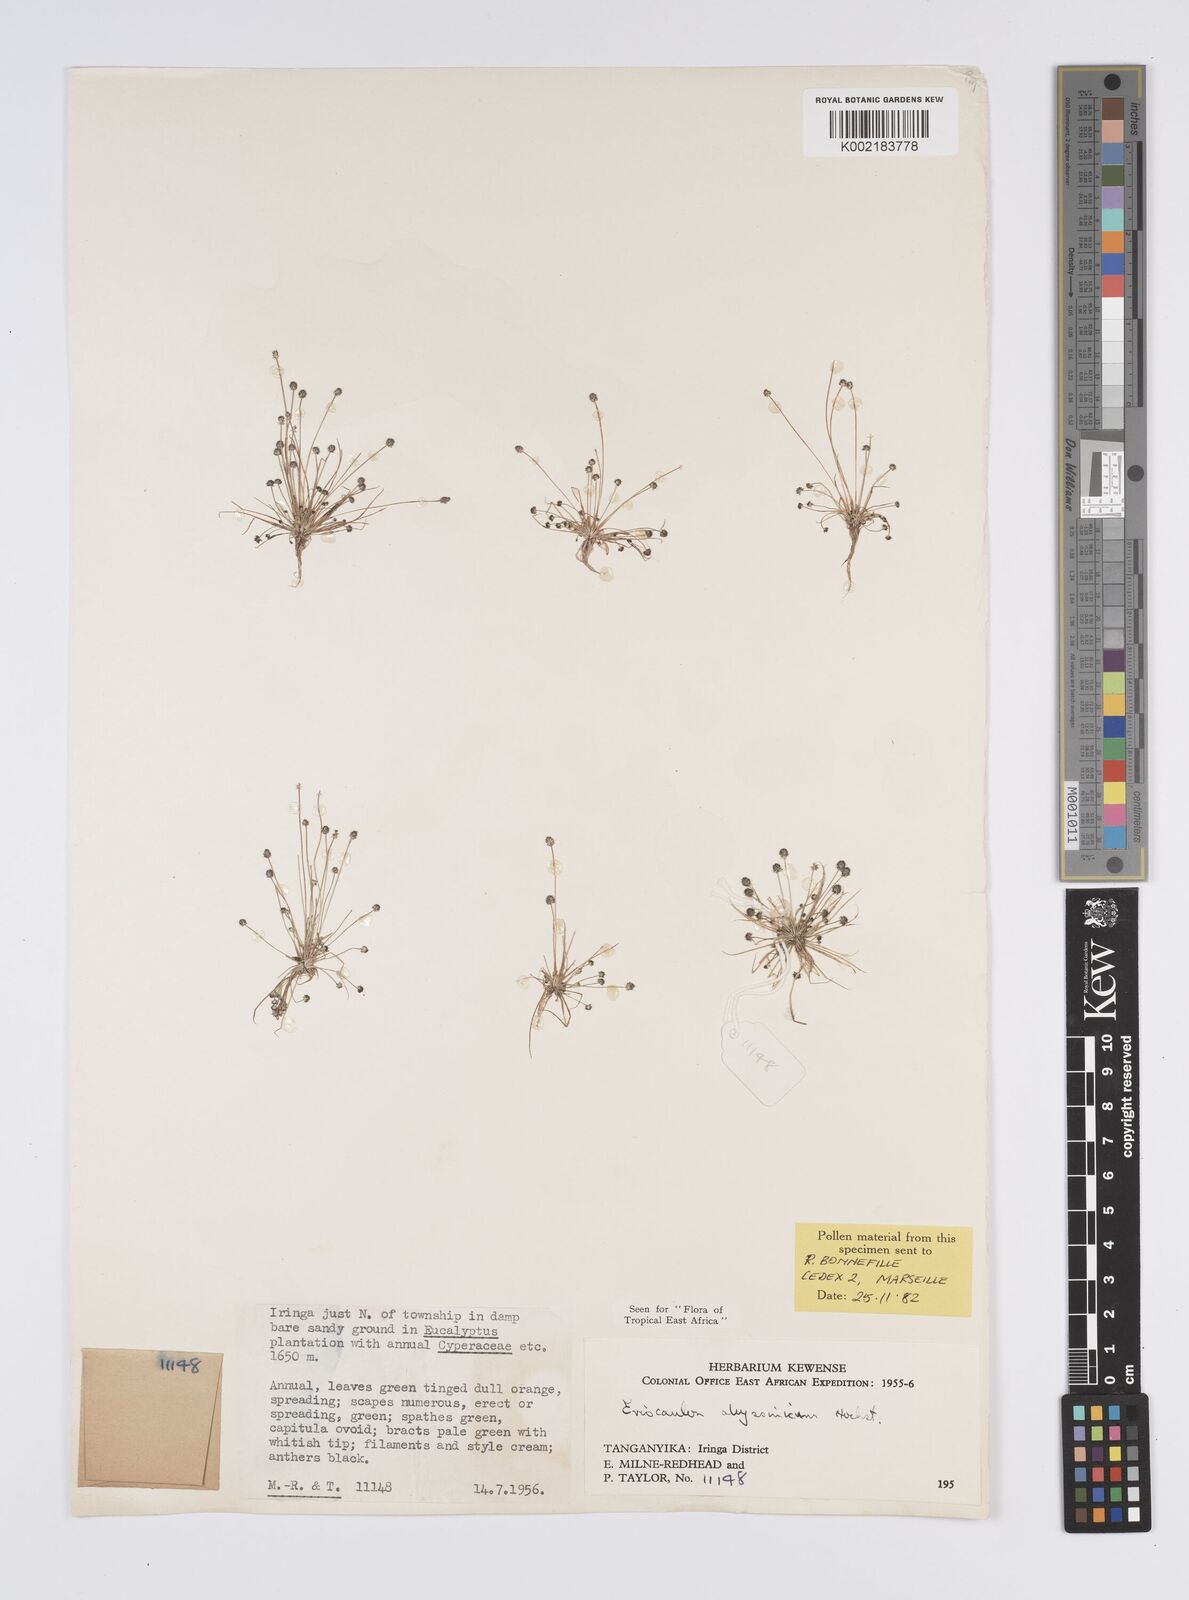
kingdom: Plantae
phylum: Tracheophyta
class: Liliopsida
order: Poales
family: Eriocaulaceae
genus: Eriocaulon
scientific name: Eriocaulon abyssinicum
